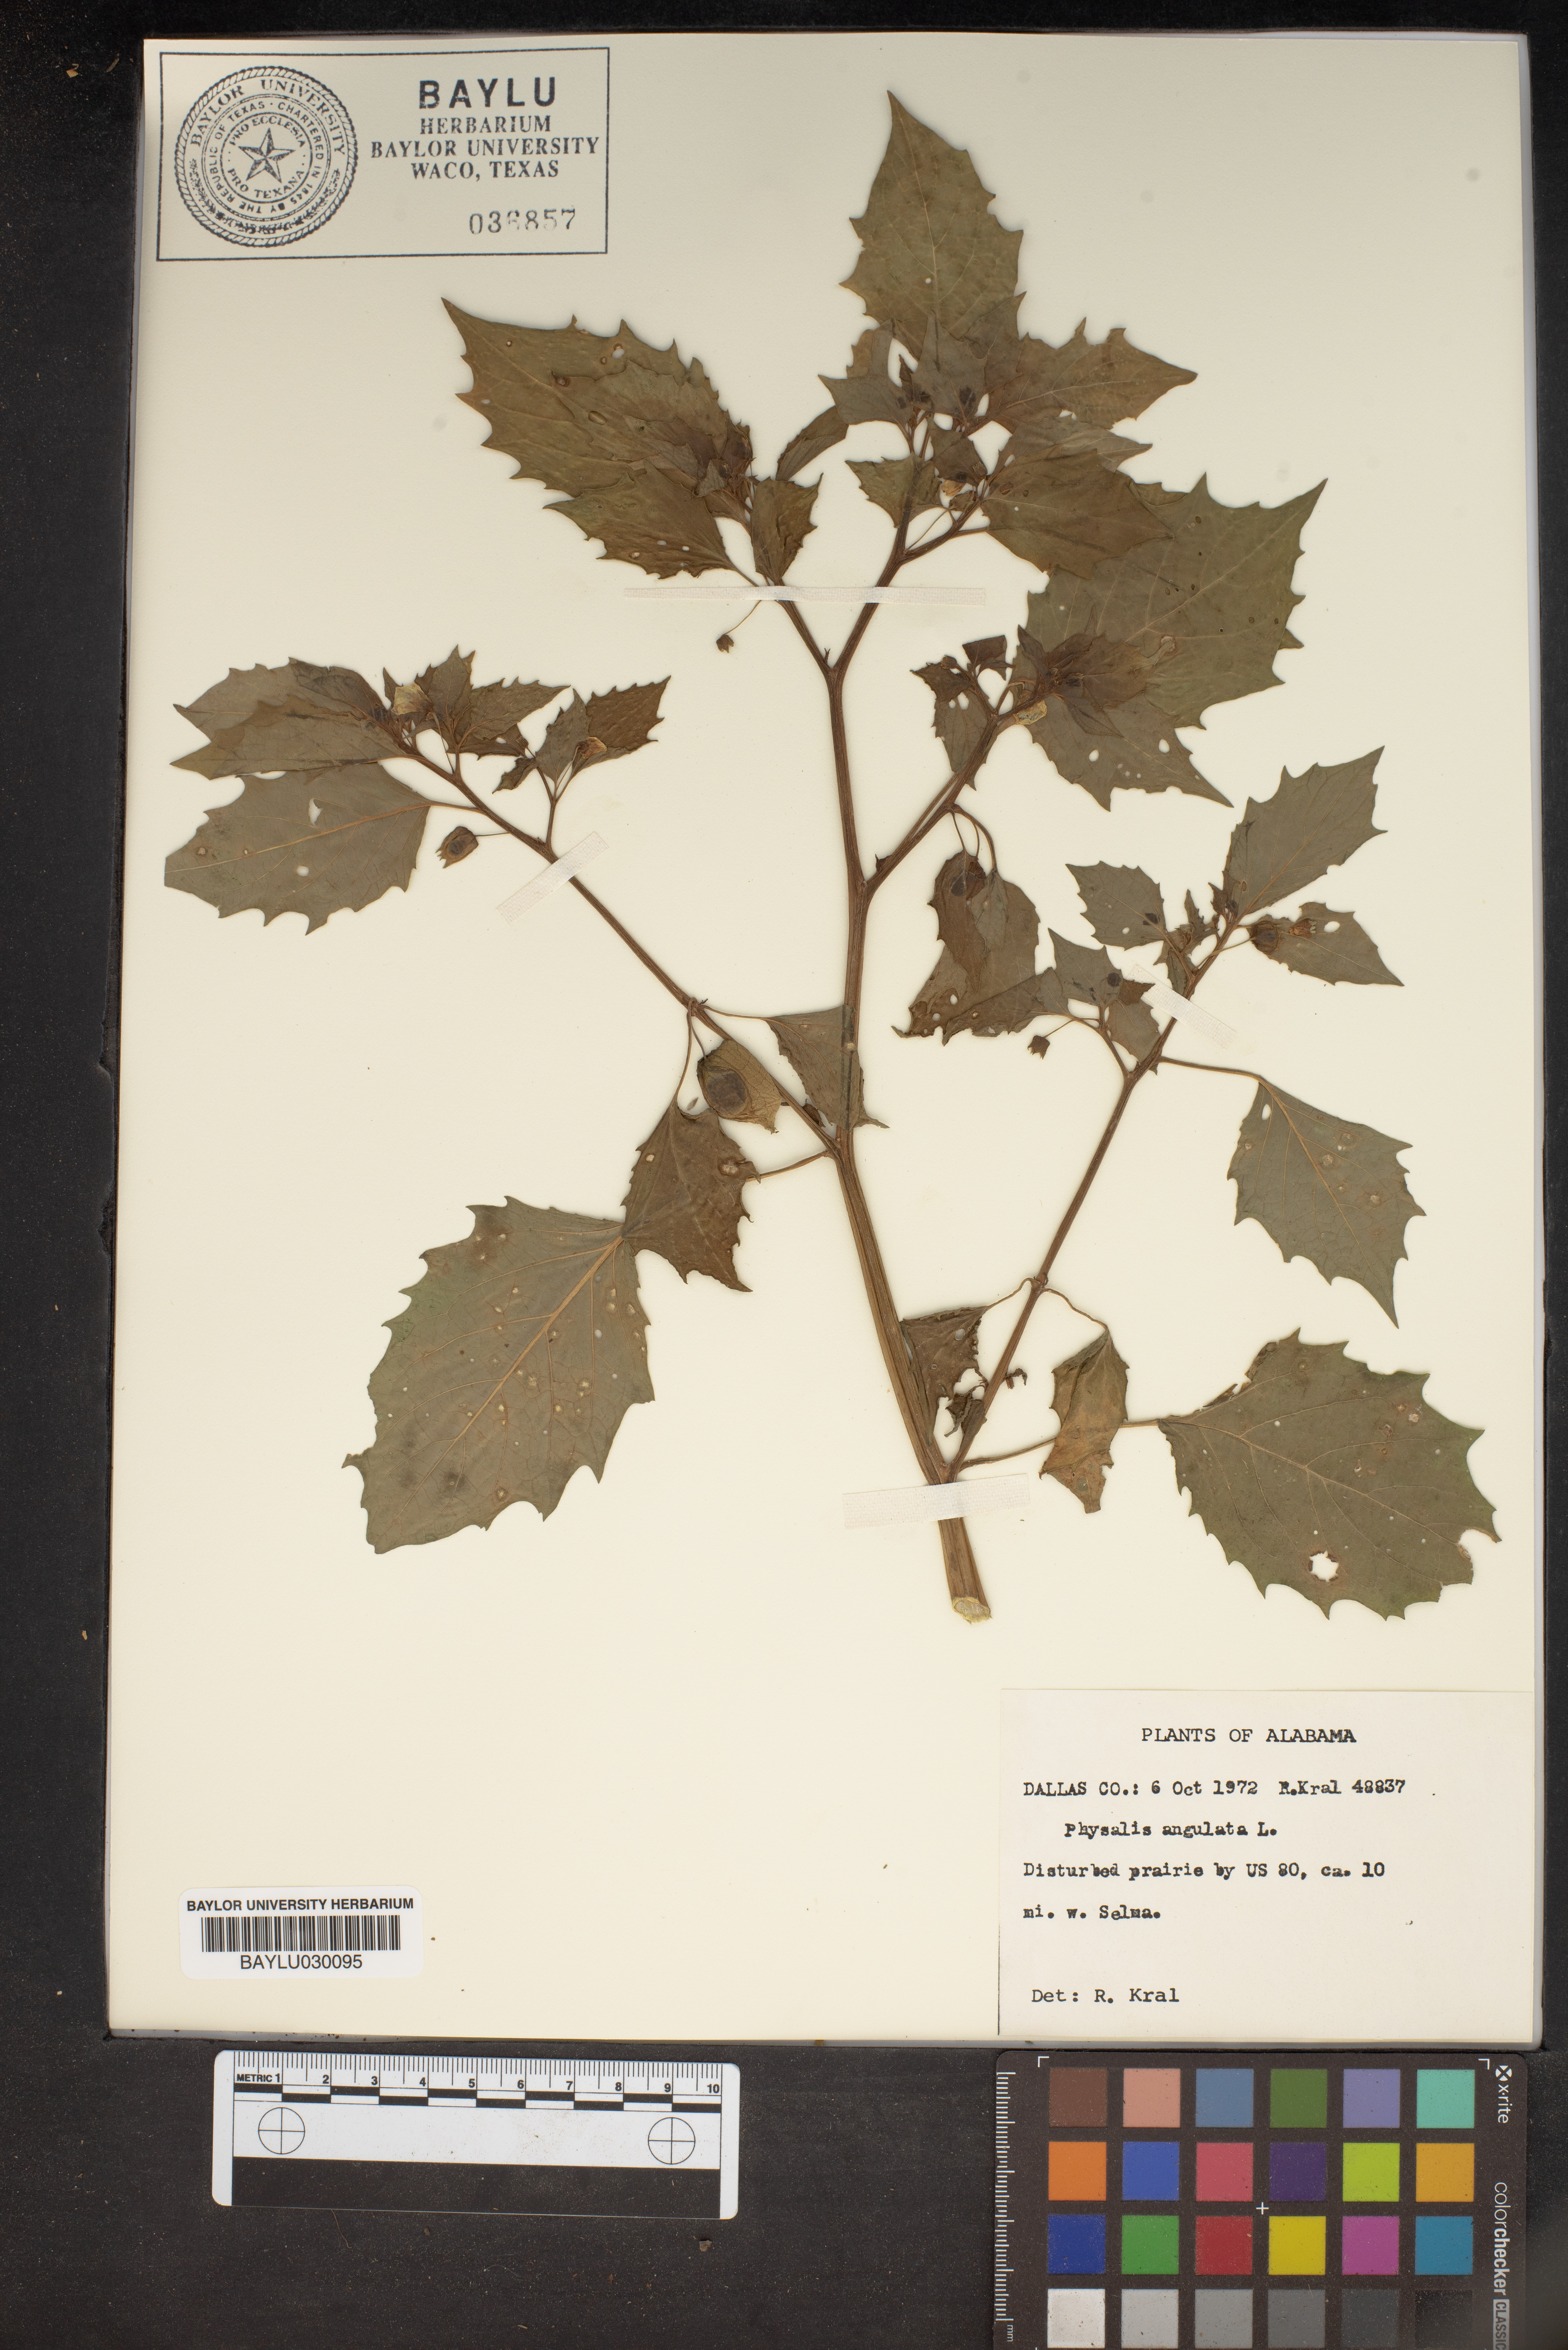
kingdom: Plantae
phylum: Tracheophyta
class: Magnoliopsida
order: Solanales
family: Solanaceae
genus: Physalis
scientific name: Physalis angulata
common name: Angular winter-cherry
